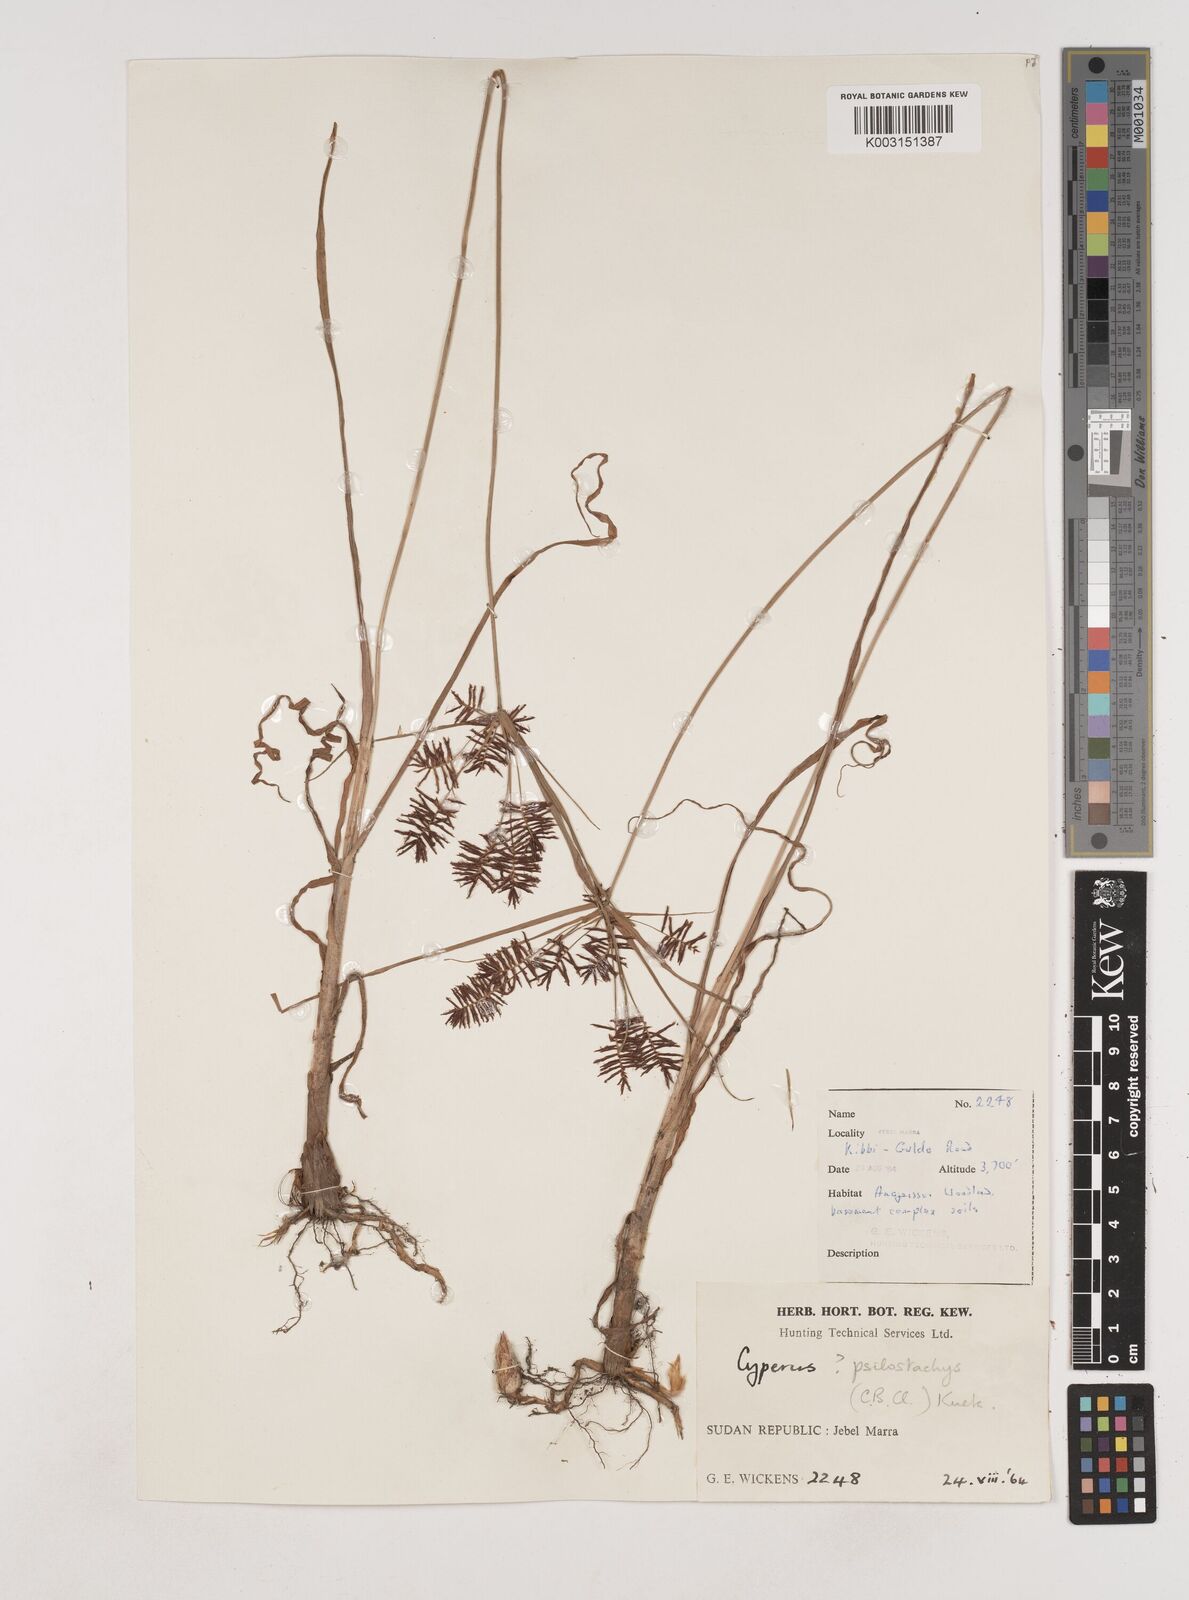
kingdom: Plantae
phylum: Tracheophyta
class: Liliopsida
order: Poales
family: Cyperaceae
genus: Cyperus
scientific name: Cyperus trigonellus
